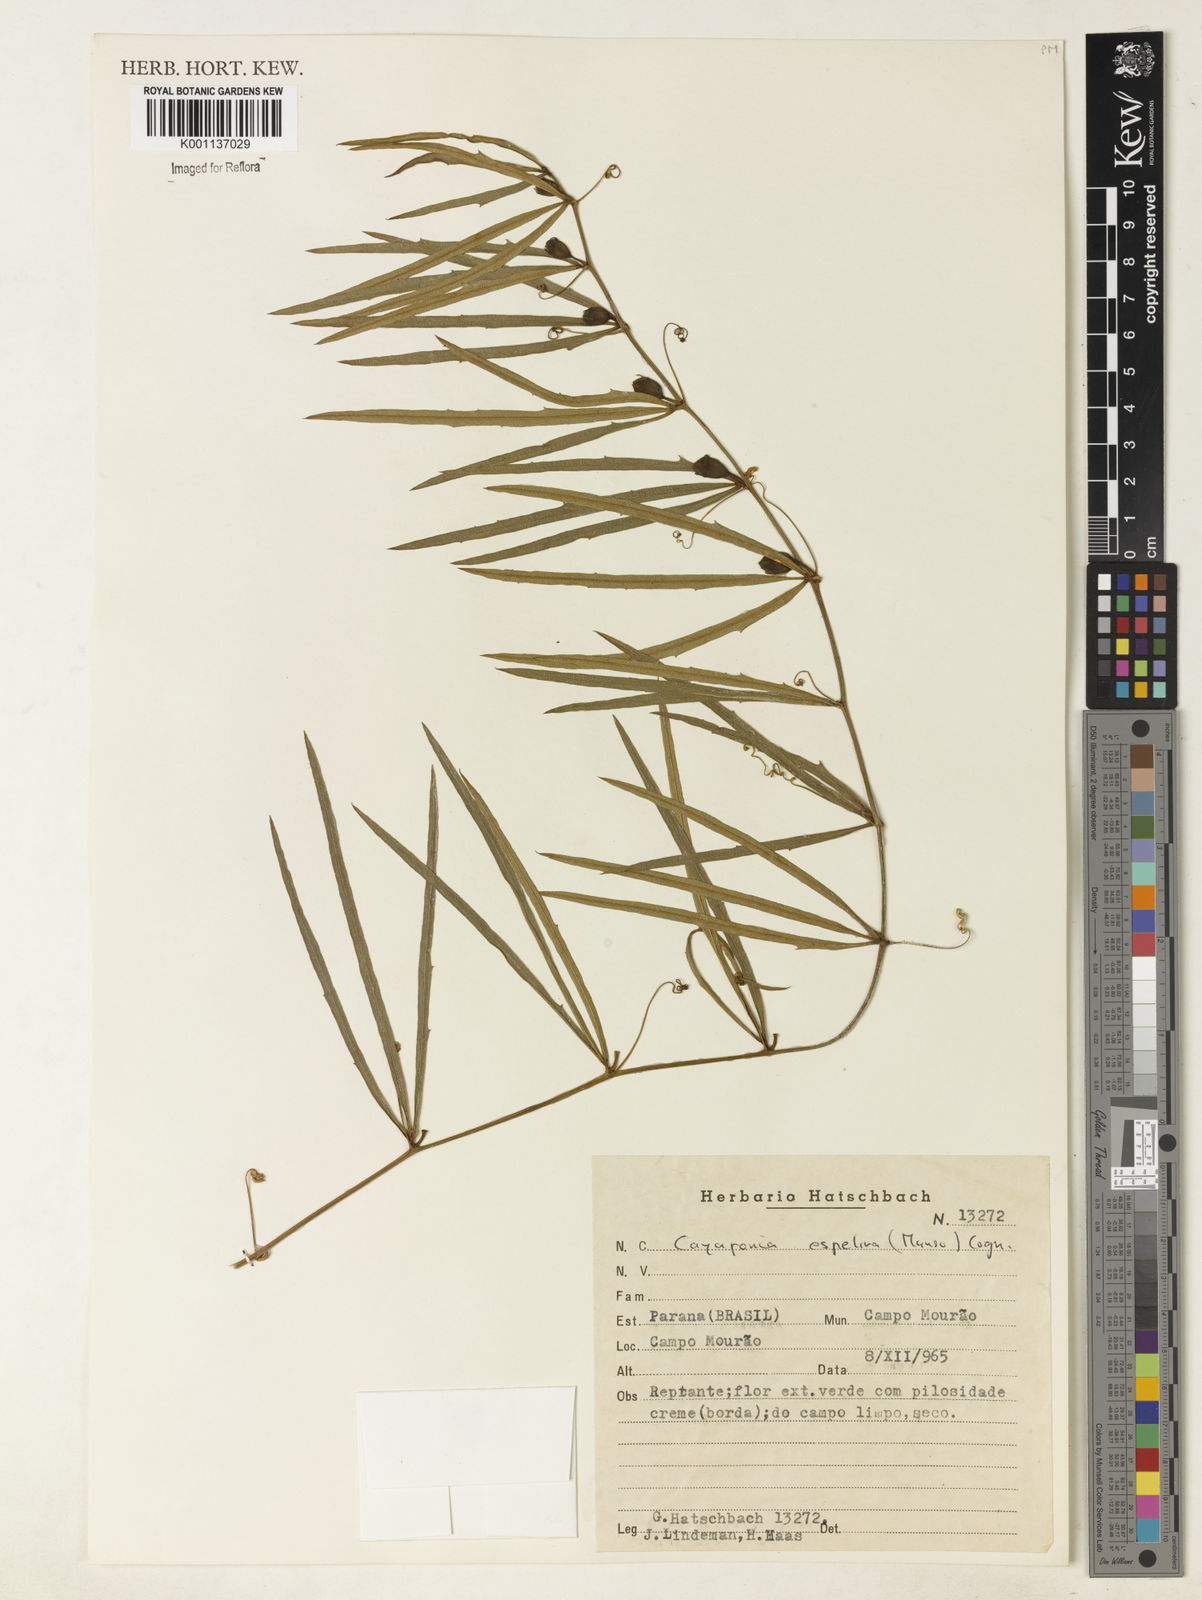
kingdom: Plantae
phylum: Tracheophyta
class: Magnoliopsida
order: Cucurbitales
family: Cucurbitaceae
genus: Cayaponia
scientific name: Cayaponia espelina
